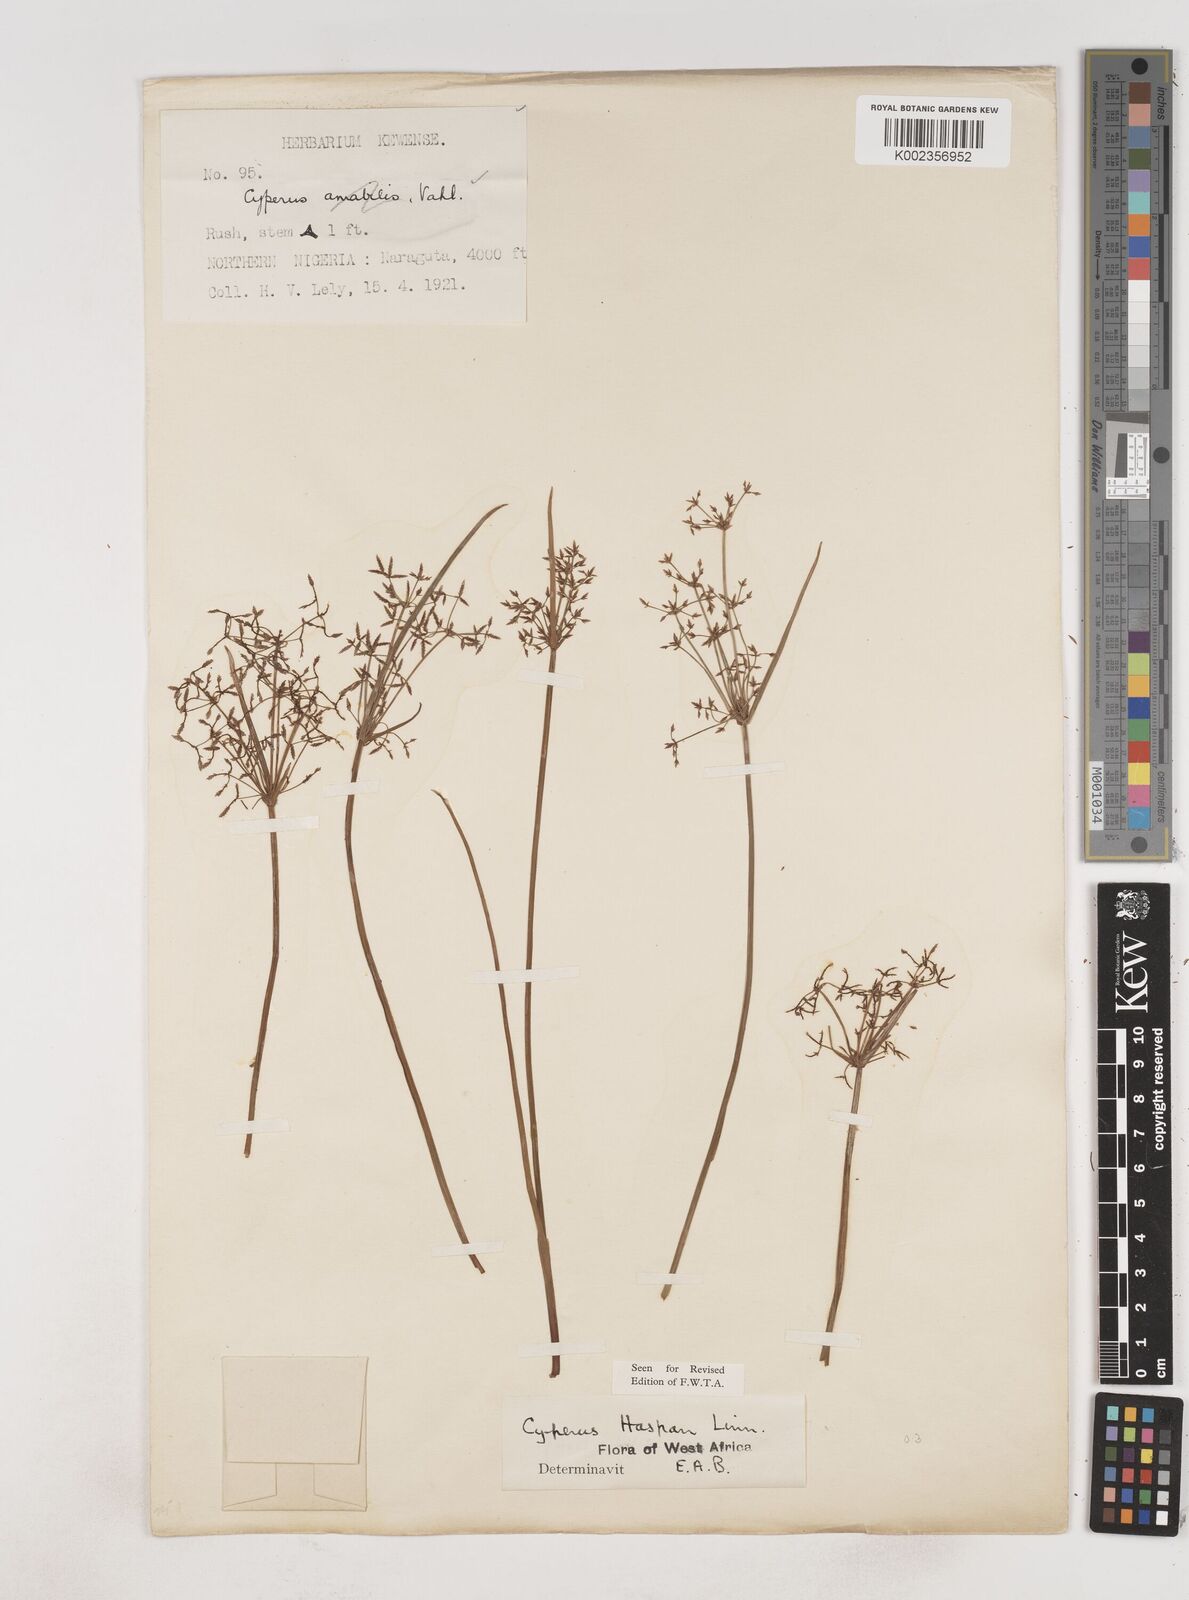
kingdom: Plantae
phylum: Tracheophyta
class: Liliopsida
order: Poales
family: Cyperaceae
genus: Cyperus
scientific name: Cyperus haspan
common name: Haspan flatsedge
